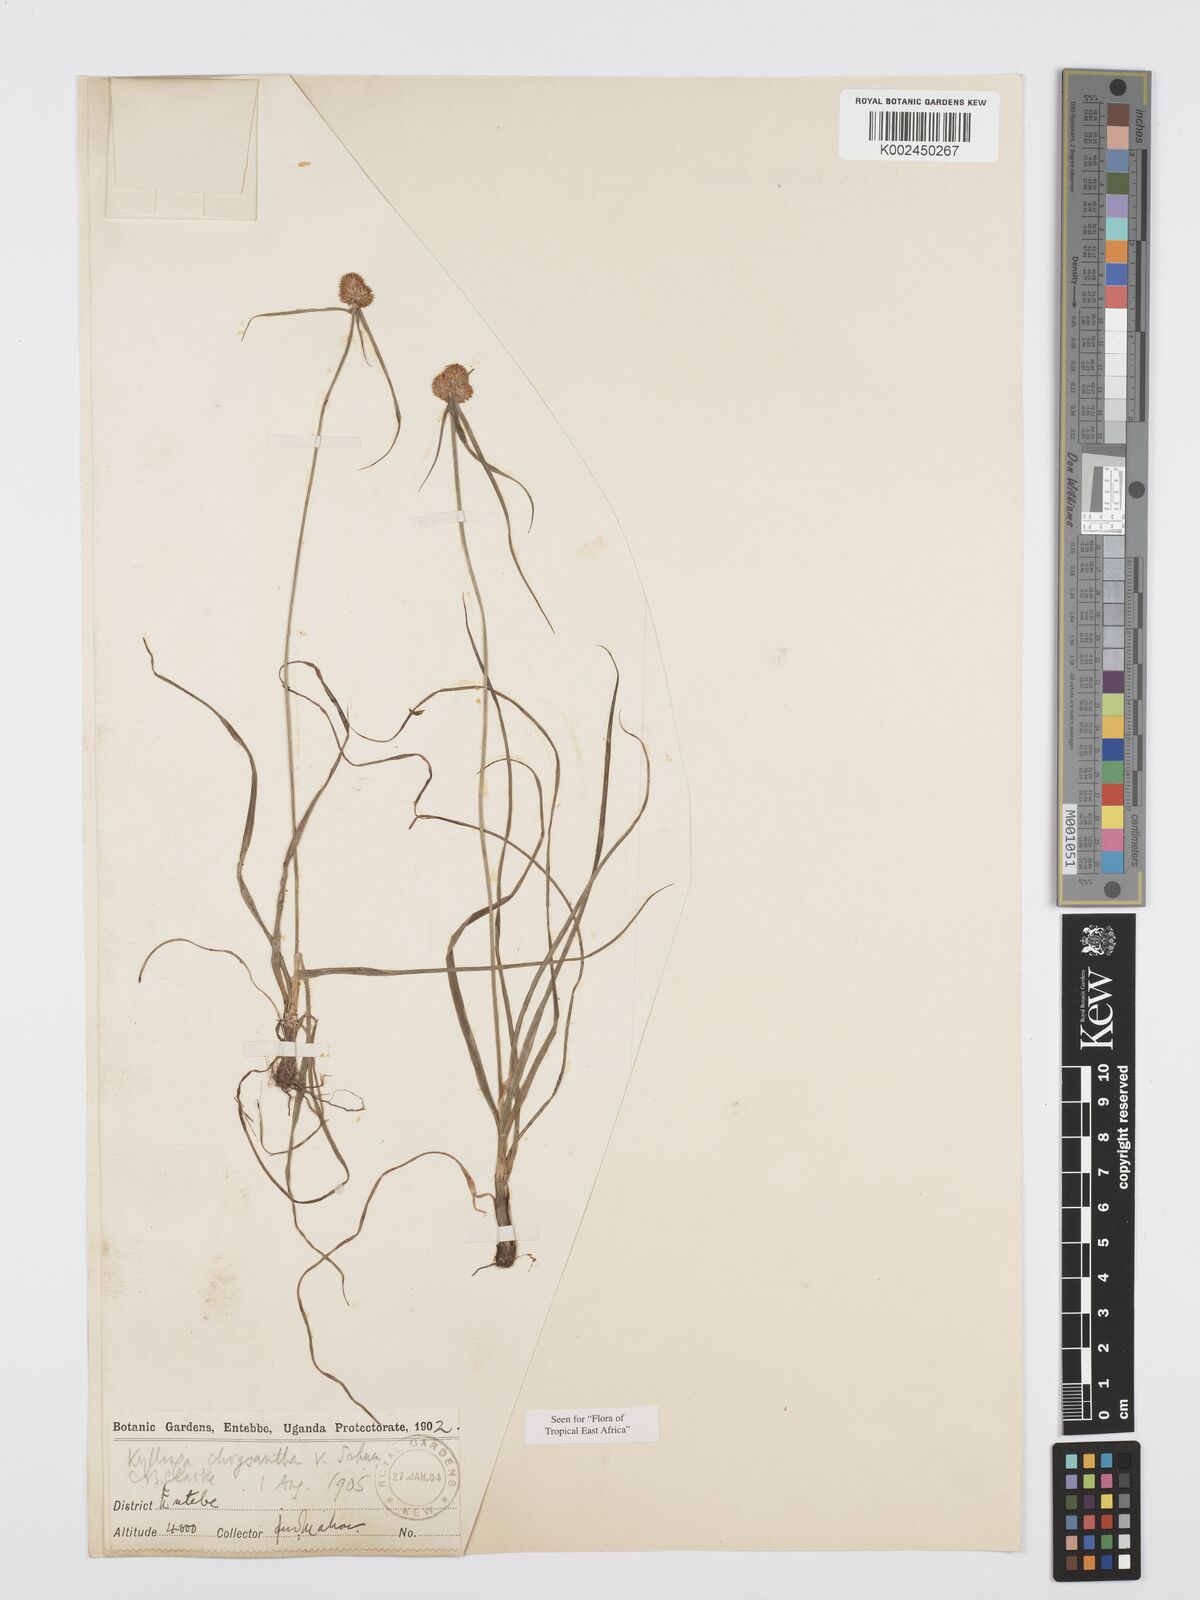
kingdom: Plantae
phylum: Tracheophyta
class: Liliopsida
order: Poales
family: Cyperaceae
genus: Cyperus
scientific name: Cyperus
